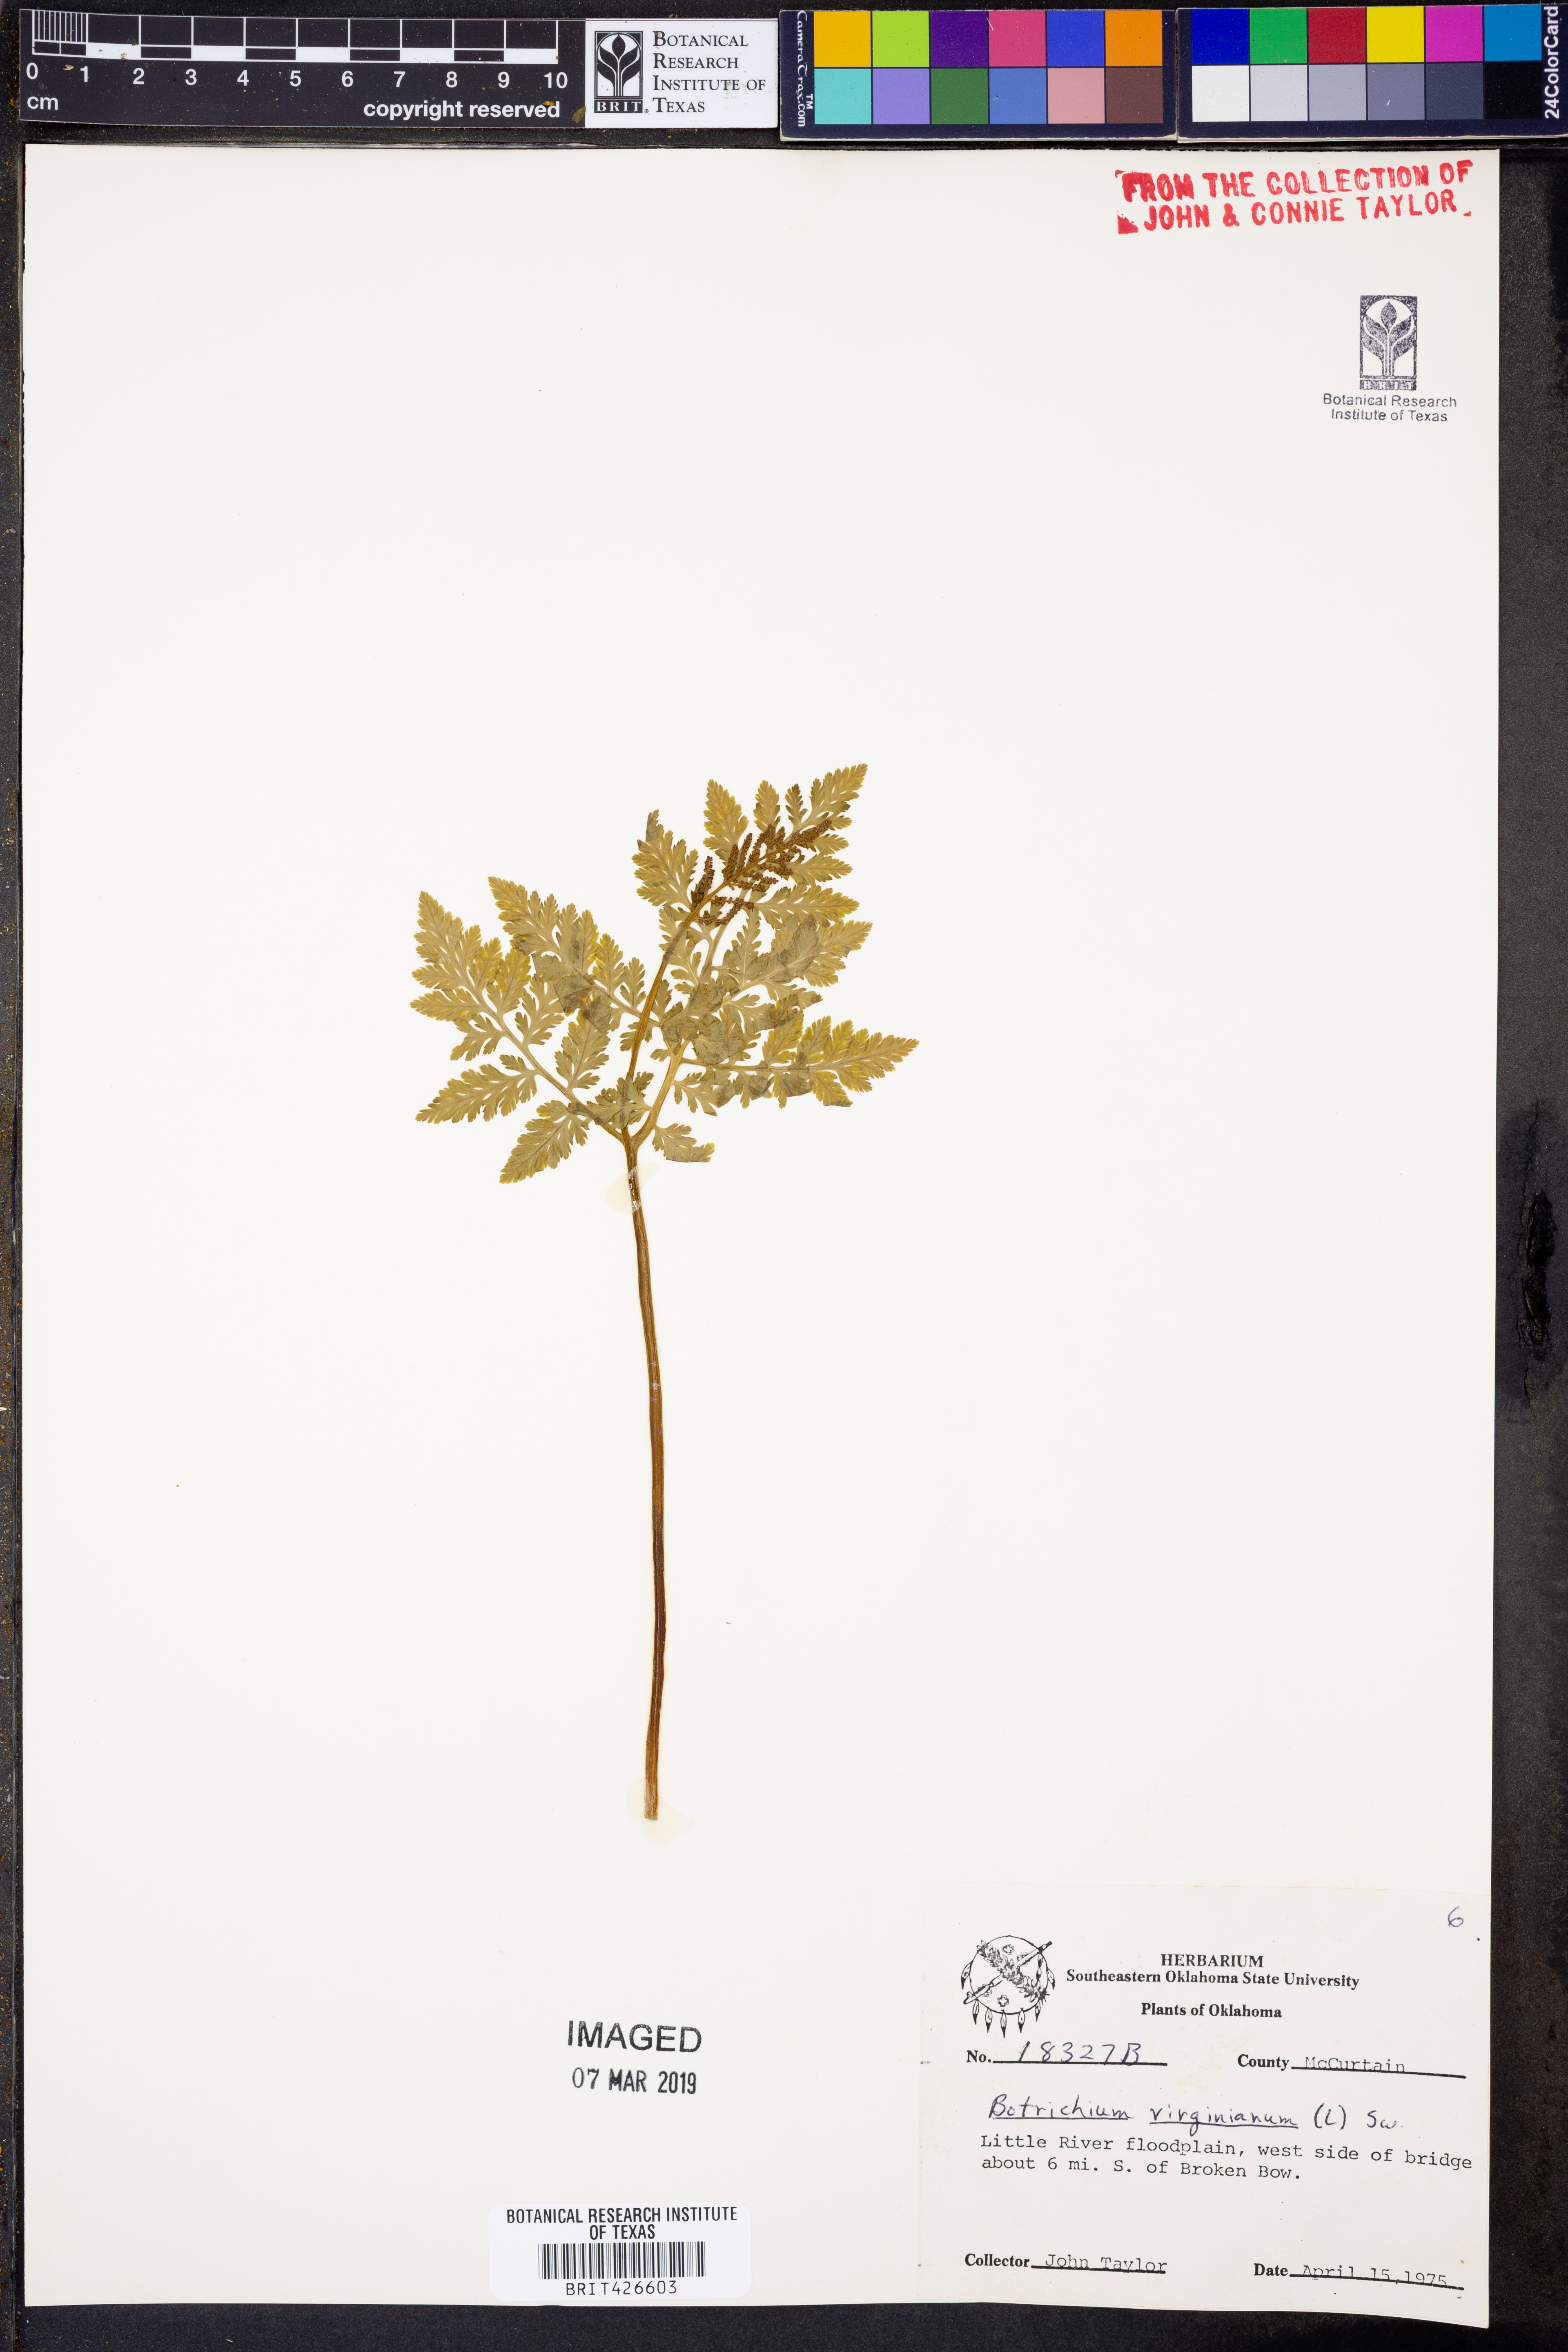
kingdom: Plantae
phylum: Tracheophyta
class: Polypodiopsida
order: Ophioglossales
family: Ophioglossaceae
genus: Botrypus
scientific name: Botrypus virginianus
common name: Common grapefern
